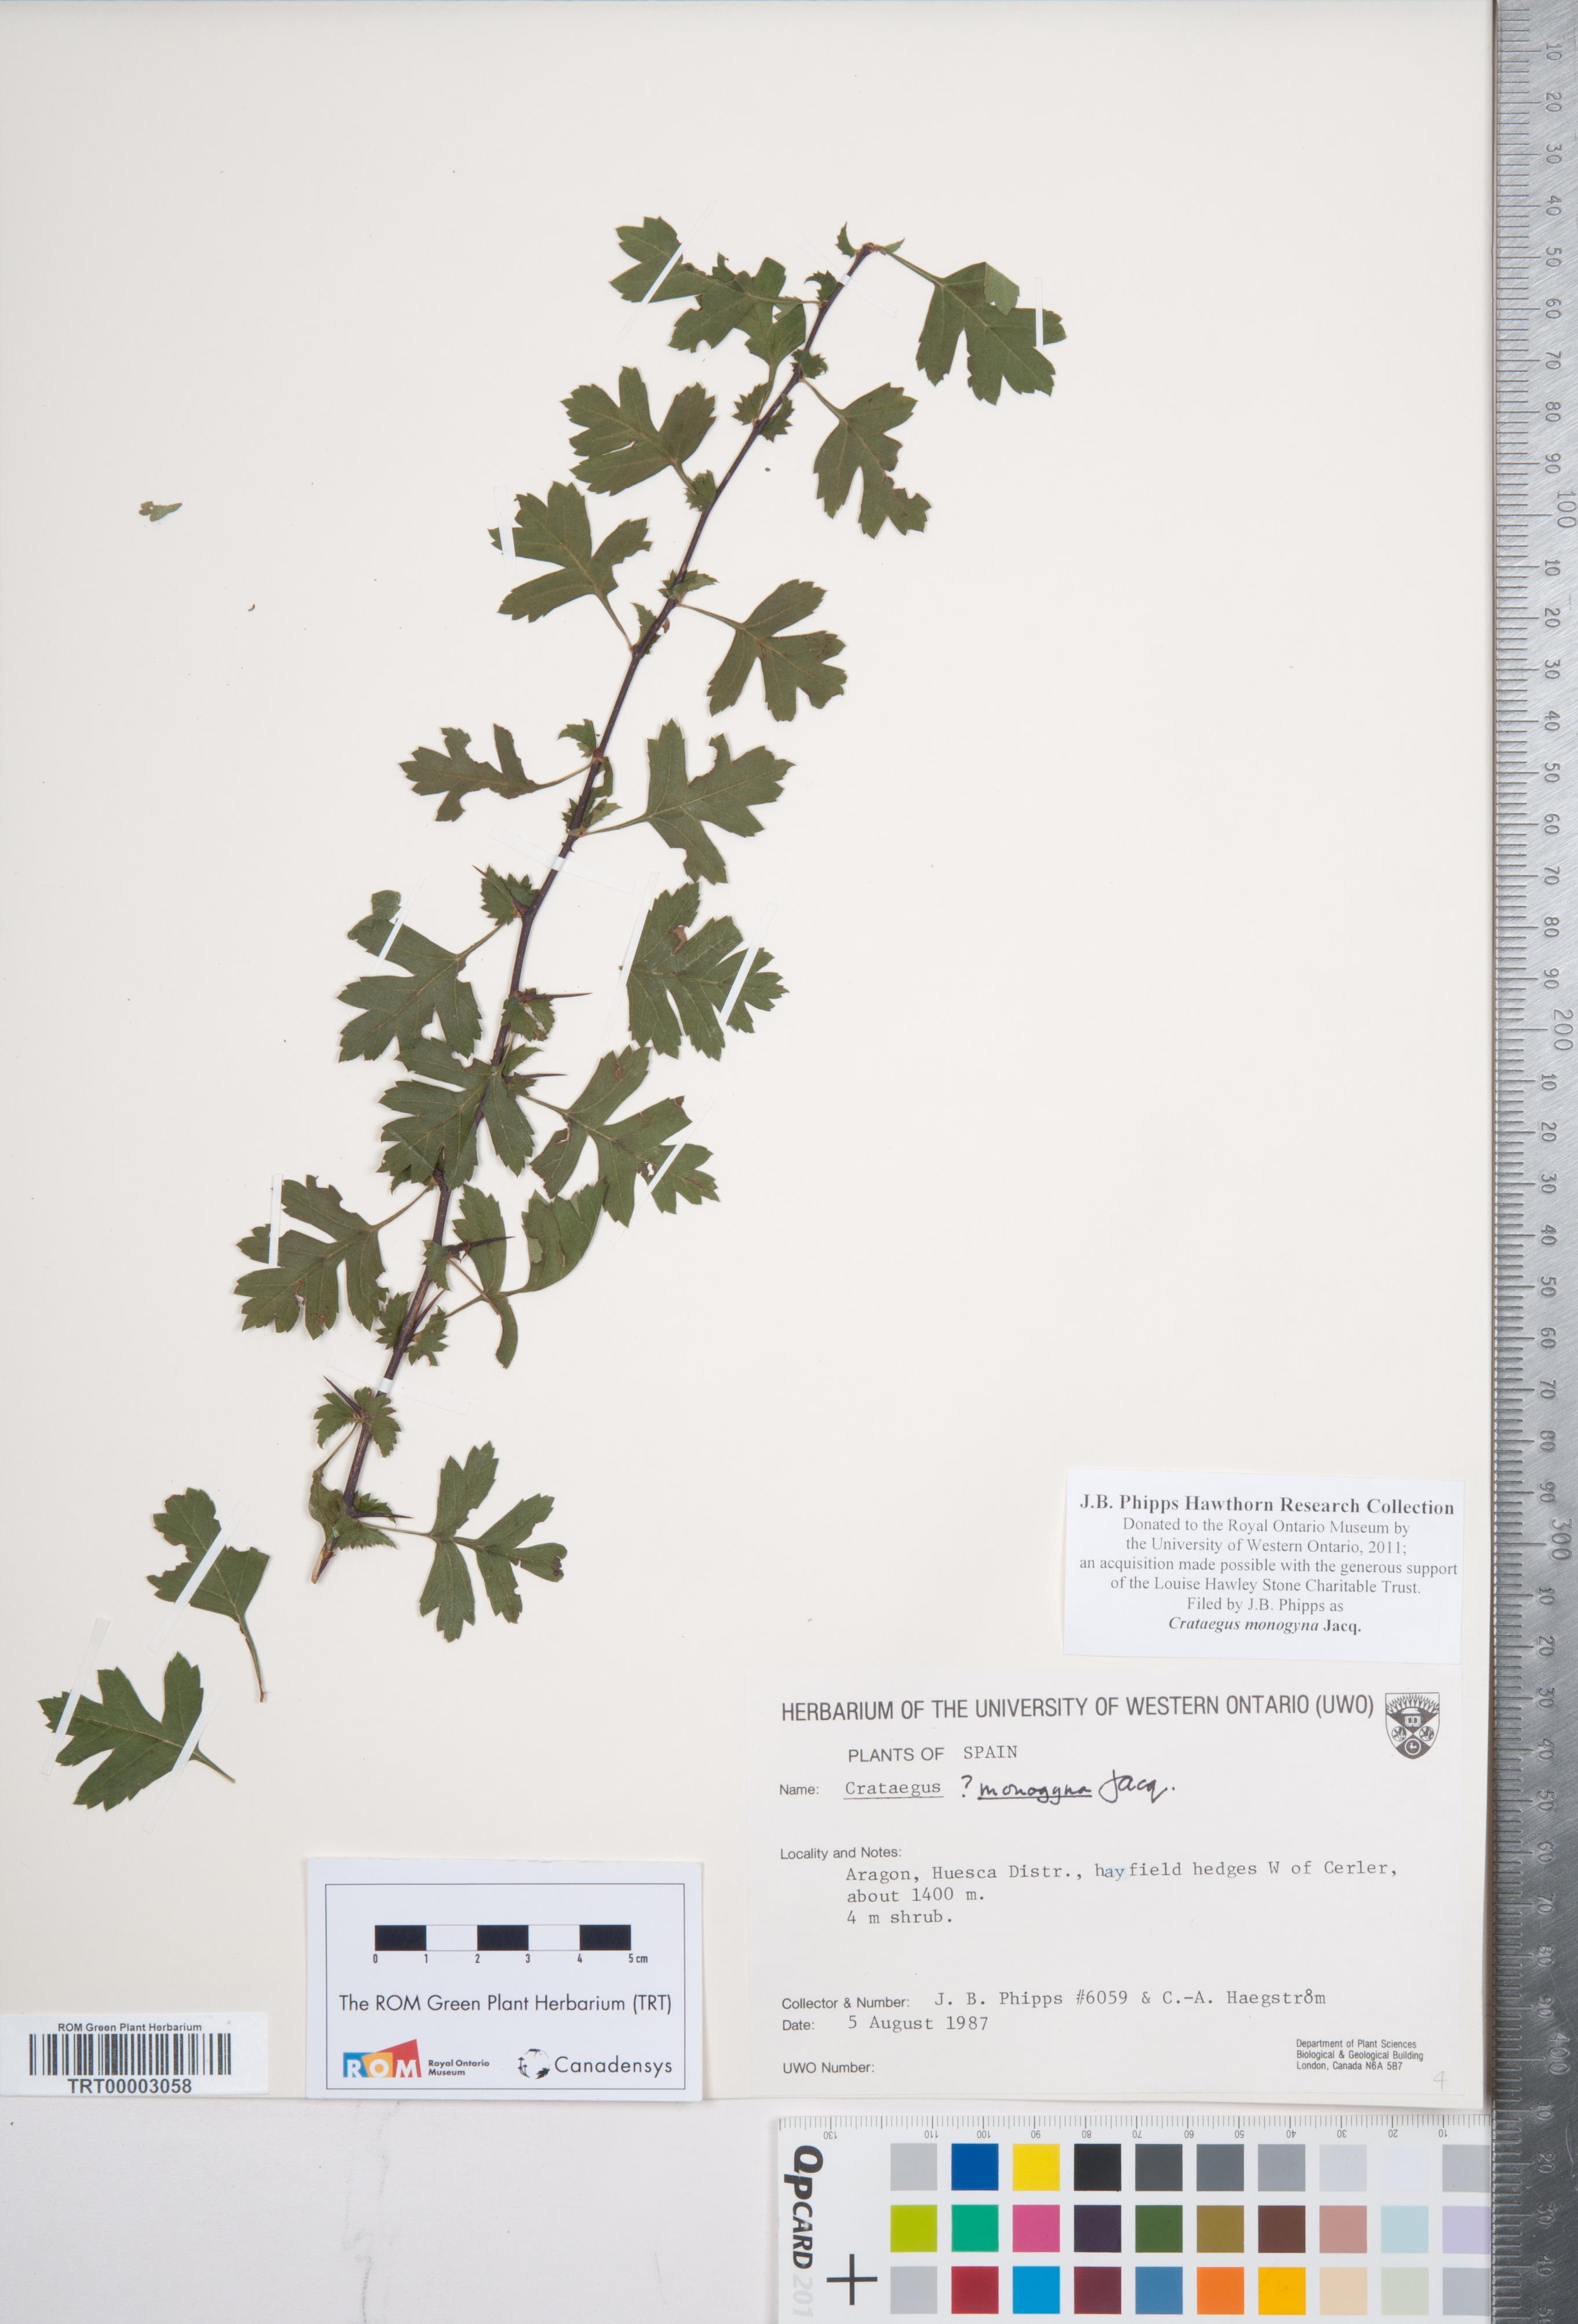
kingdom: Plantae
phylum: Tracheophyta
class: Magnoliopsida
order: Rosales
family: Rosaceae
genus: Crataegus
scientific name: Crataegus monogyna
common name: Hawthorn
